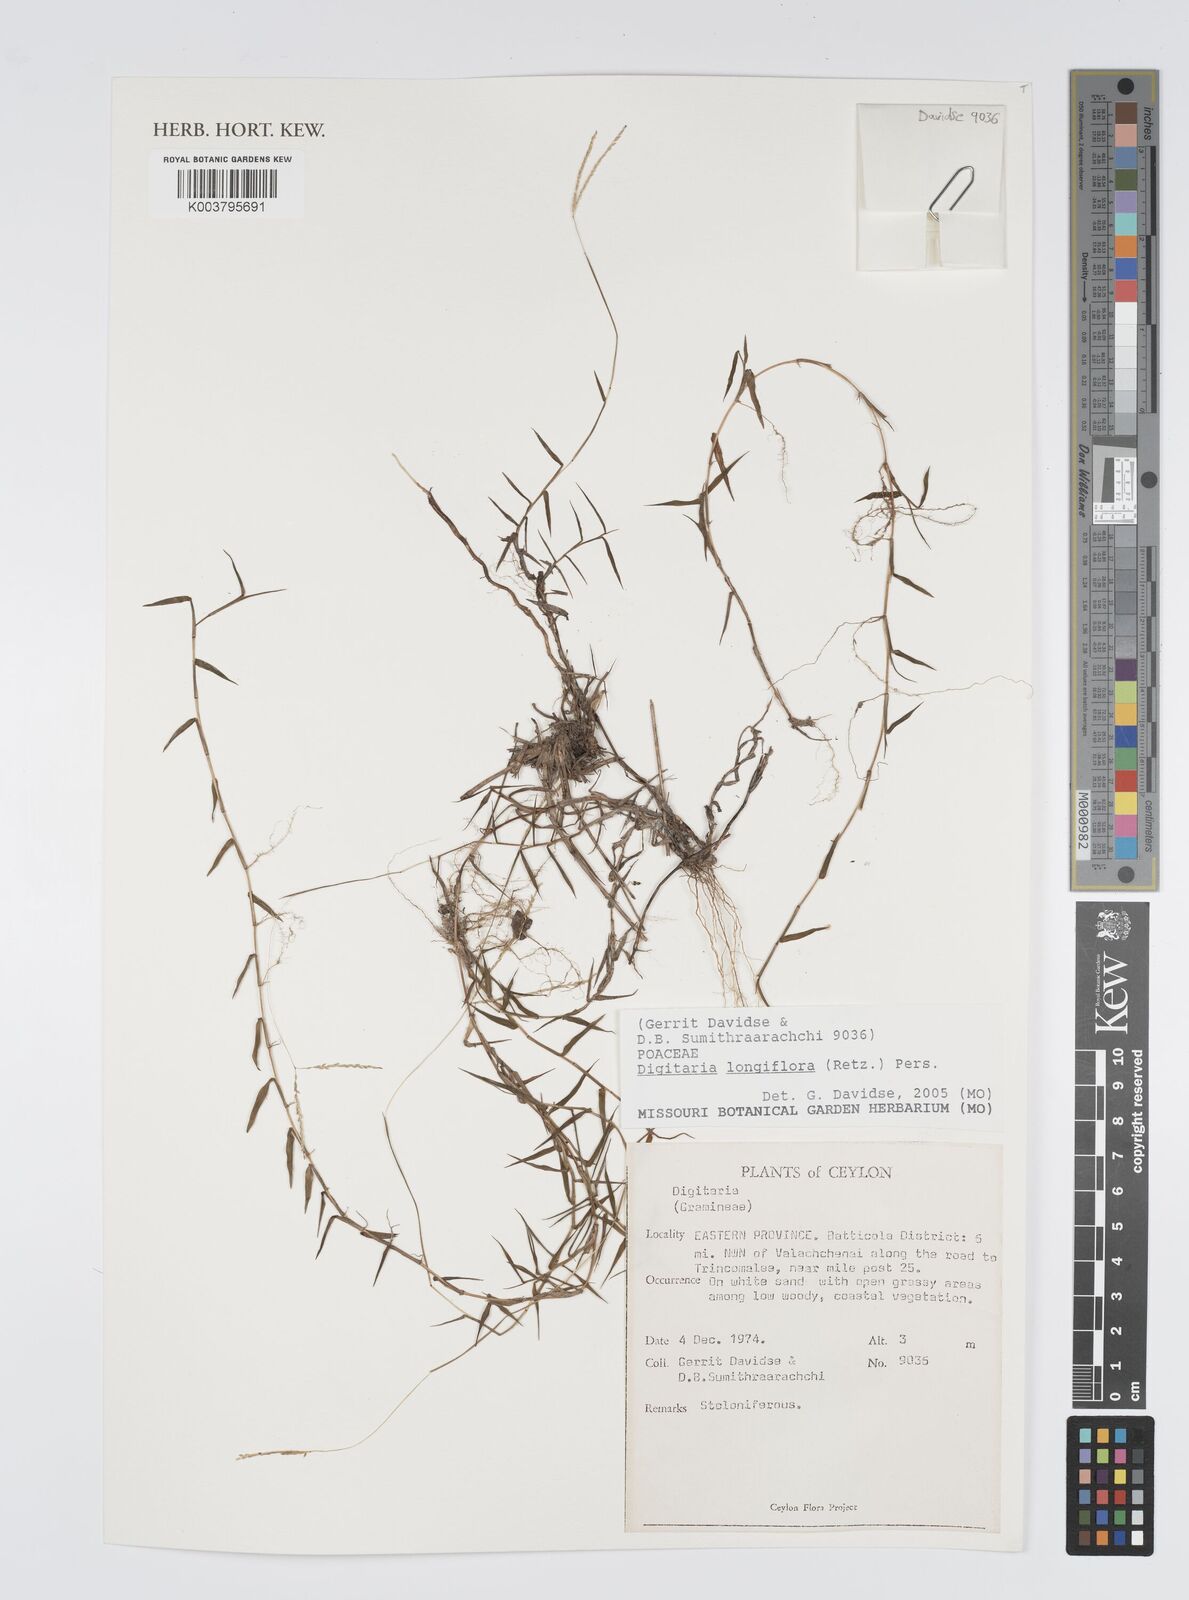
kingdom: Plantae
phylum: Tracheophyta
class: Liliopsida
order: Poales
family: Poaceae
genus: Digitaria
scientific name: Digitaria longiflora
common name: Wire crabgrass
